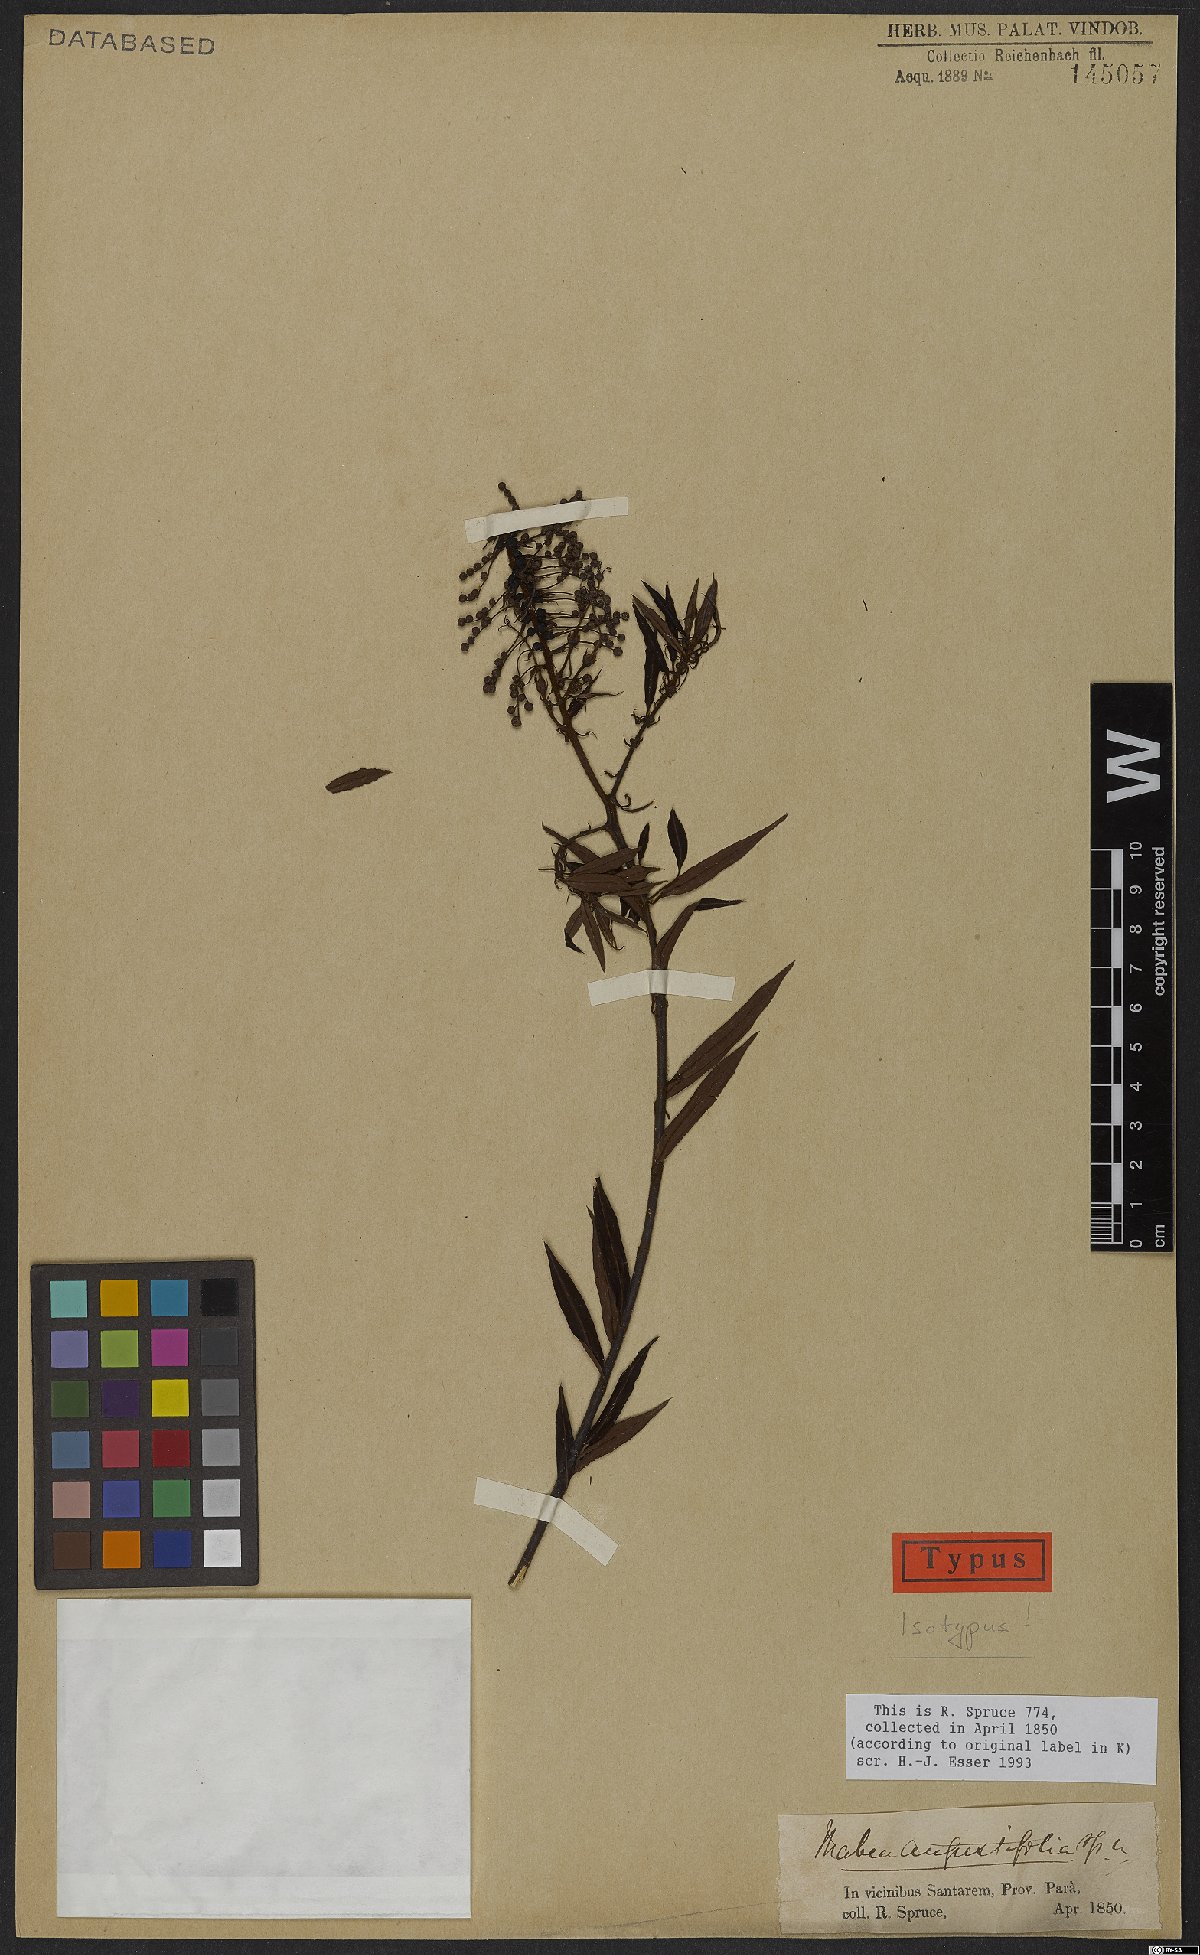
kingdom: Plantae
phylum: Tracheophyta
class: Magnoliopsida
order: Malpighiales
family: Euphorbiaceae
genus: Mabea
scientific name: Mabea angustifolia
